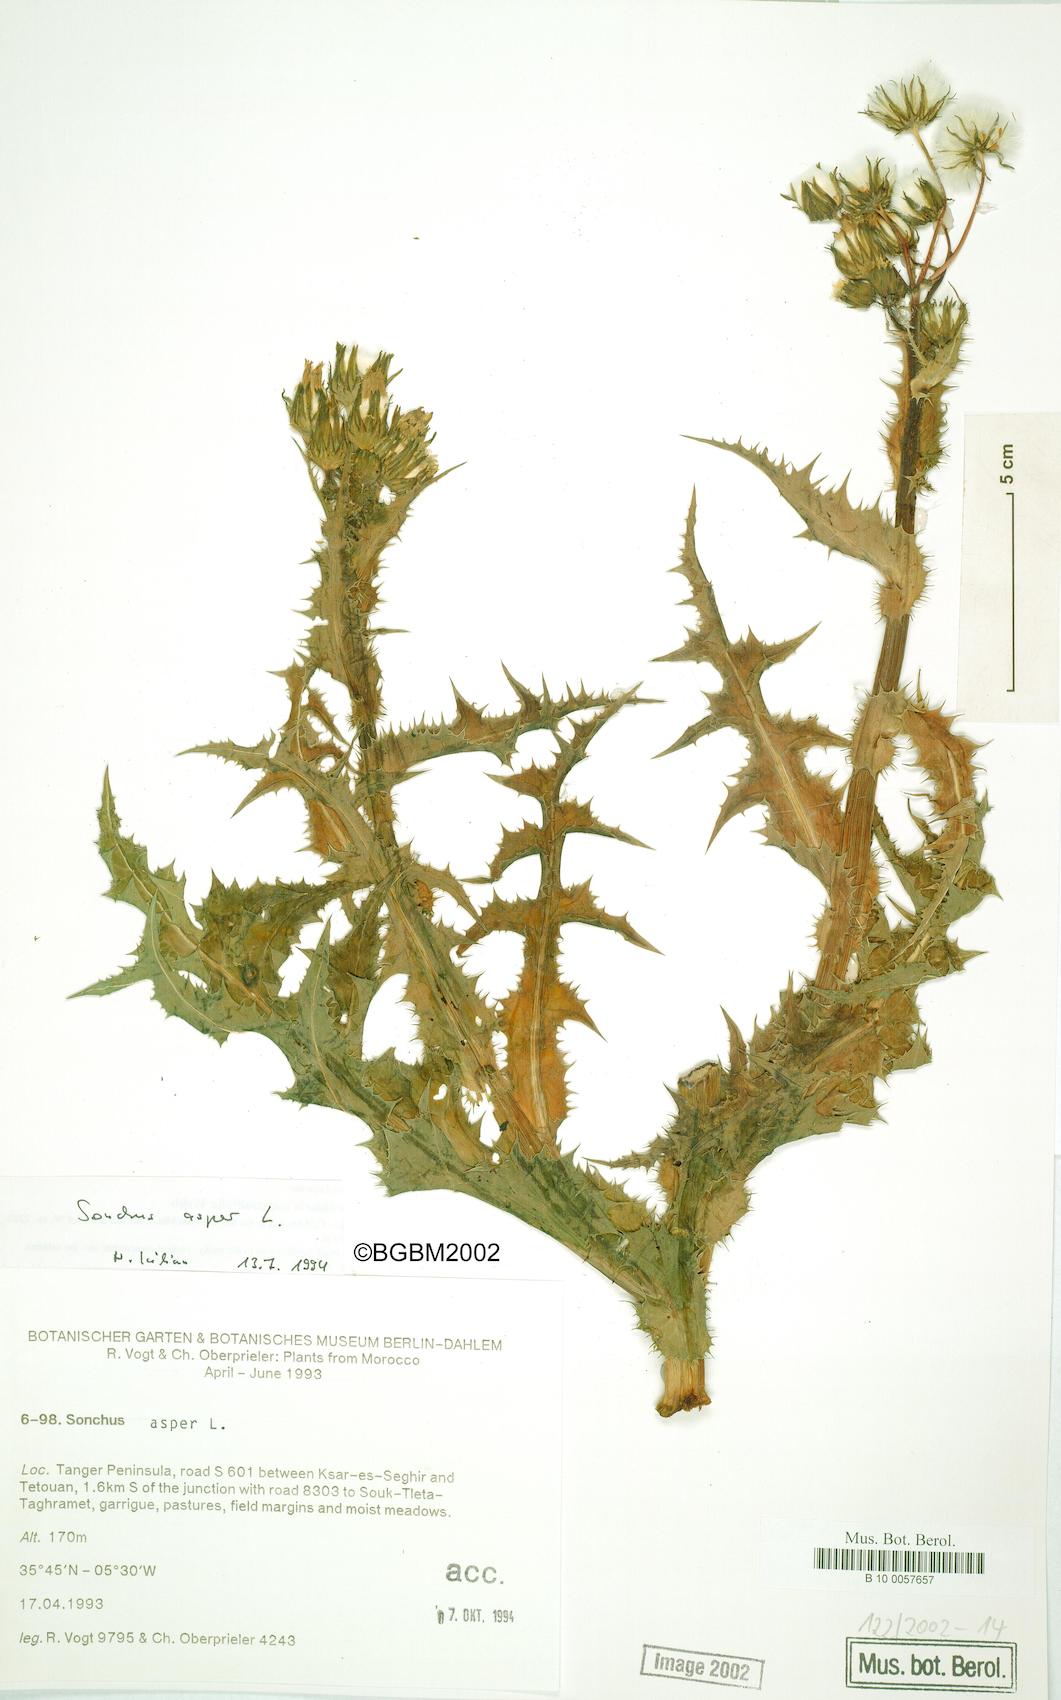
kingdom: Plantae
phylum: Tracheophyta
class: Magnoliopsida
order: Asterales
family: Asteraceae
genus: Sonchus
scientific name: Sonchus asper
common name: Prickly sow-thistle
